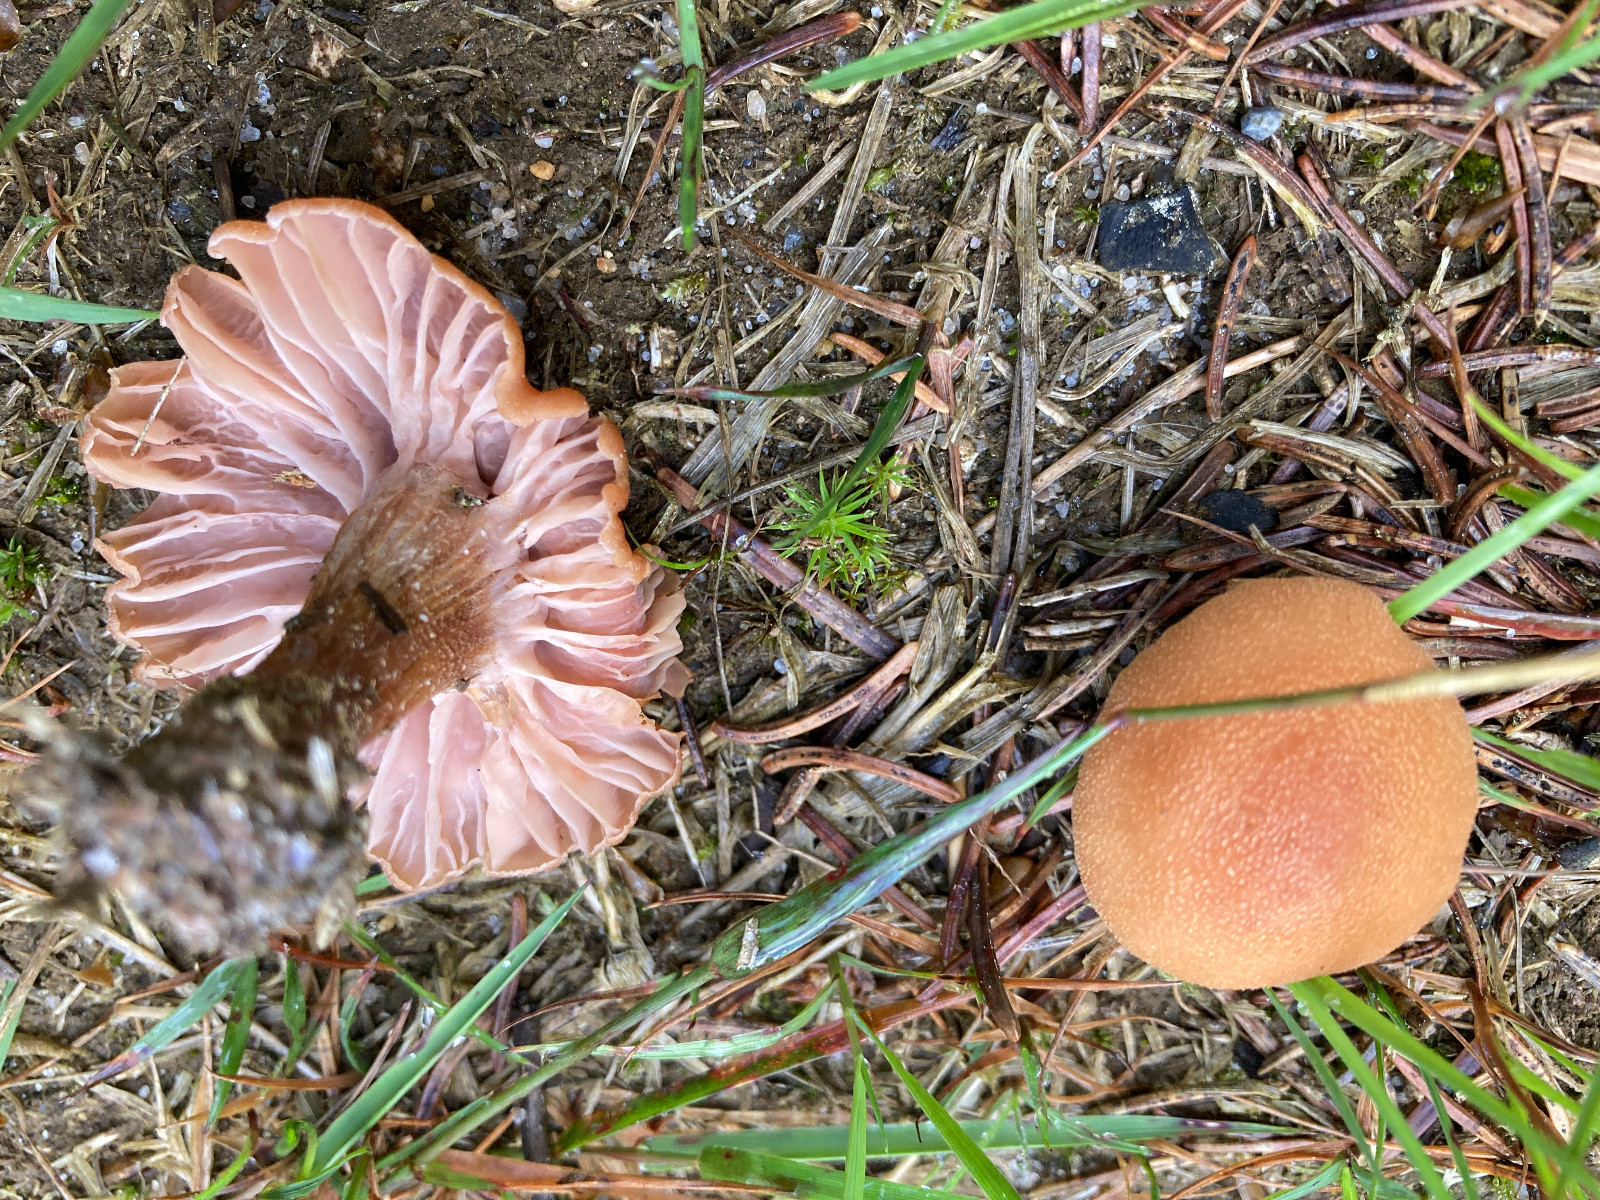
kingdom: Fungi
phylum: Basidiomycota
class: Agaricomycetes
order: Agaricales
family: Hydnangiaceae
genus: Laccaria
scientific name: Laccaria bicolor
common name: tvefarvet ametysthat
